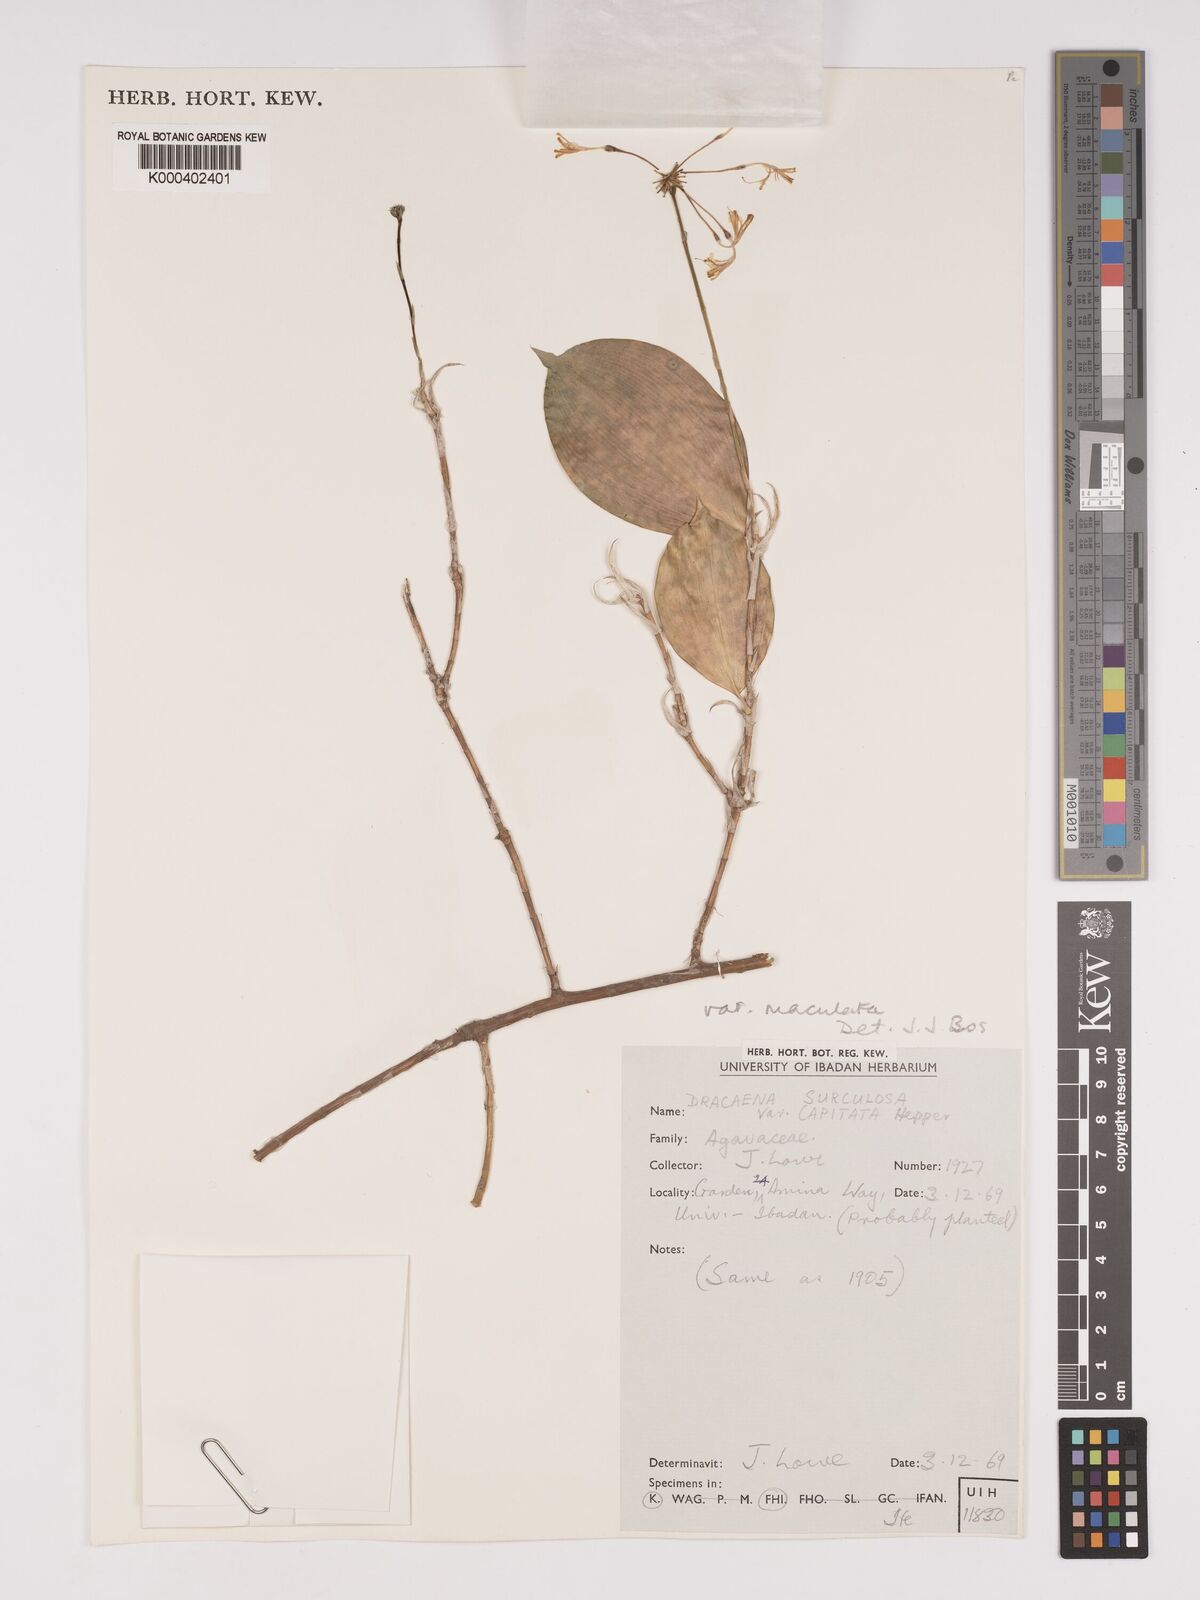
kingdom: Plantae
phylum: Tracheophyta
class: Liliopsida
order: Asparagales
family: Asparagaceae
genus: Dracaena
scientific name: Dracaena surculosa
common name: Spotted dracaena
